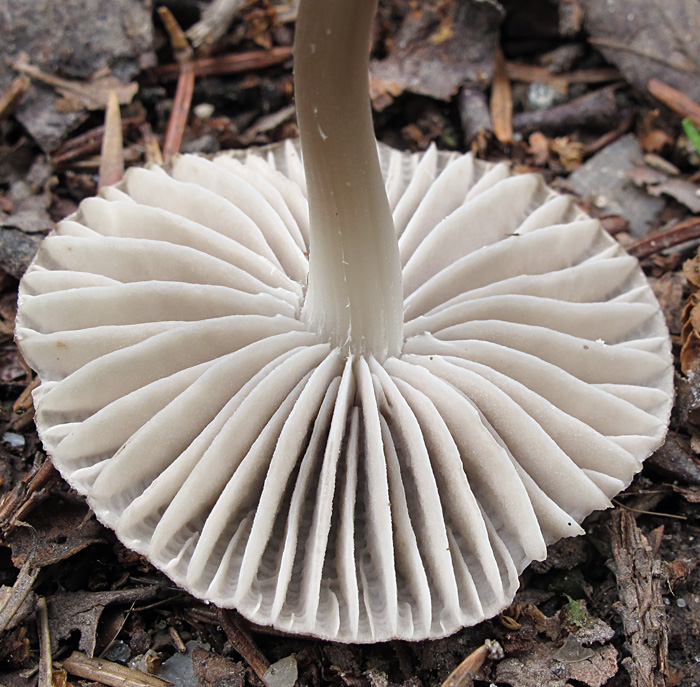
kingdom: Fungi
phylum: Basidiomycota
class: Agaricomycetes
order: Agaricales
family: Mycenaceae
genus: Mycena
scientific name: Mycena abramsii
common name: sommer-huesvamp
